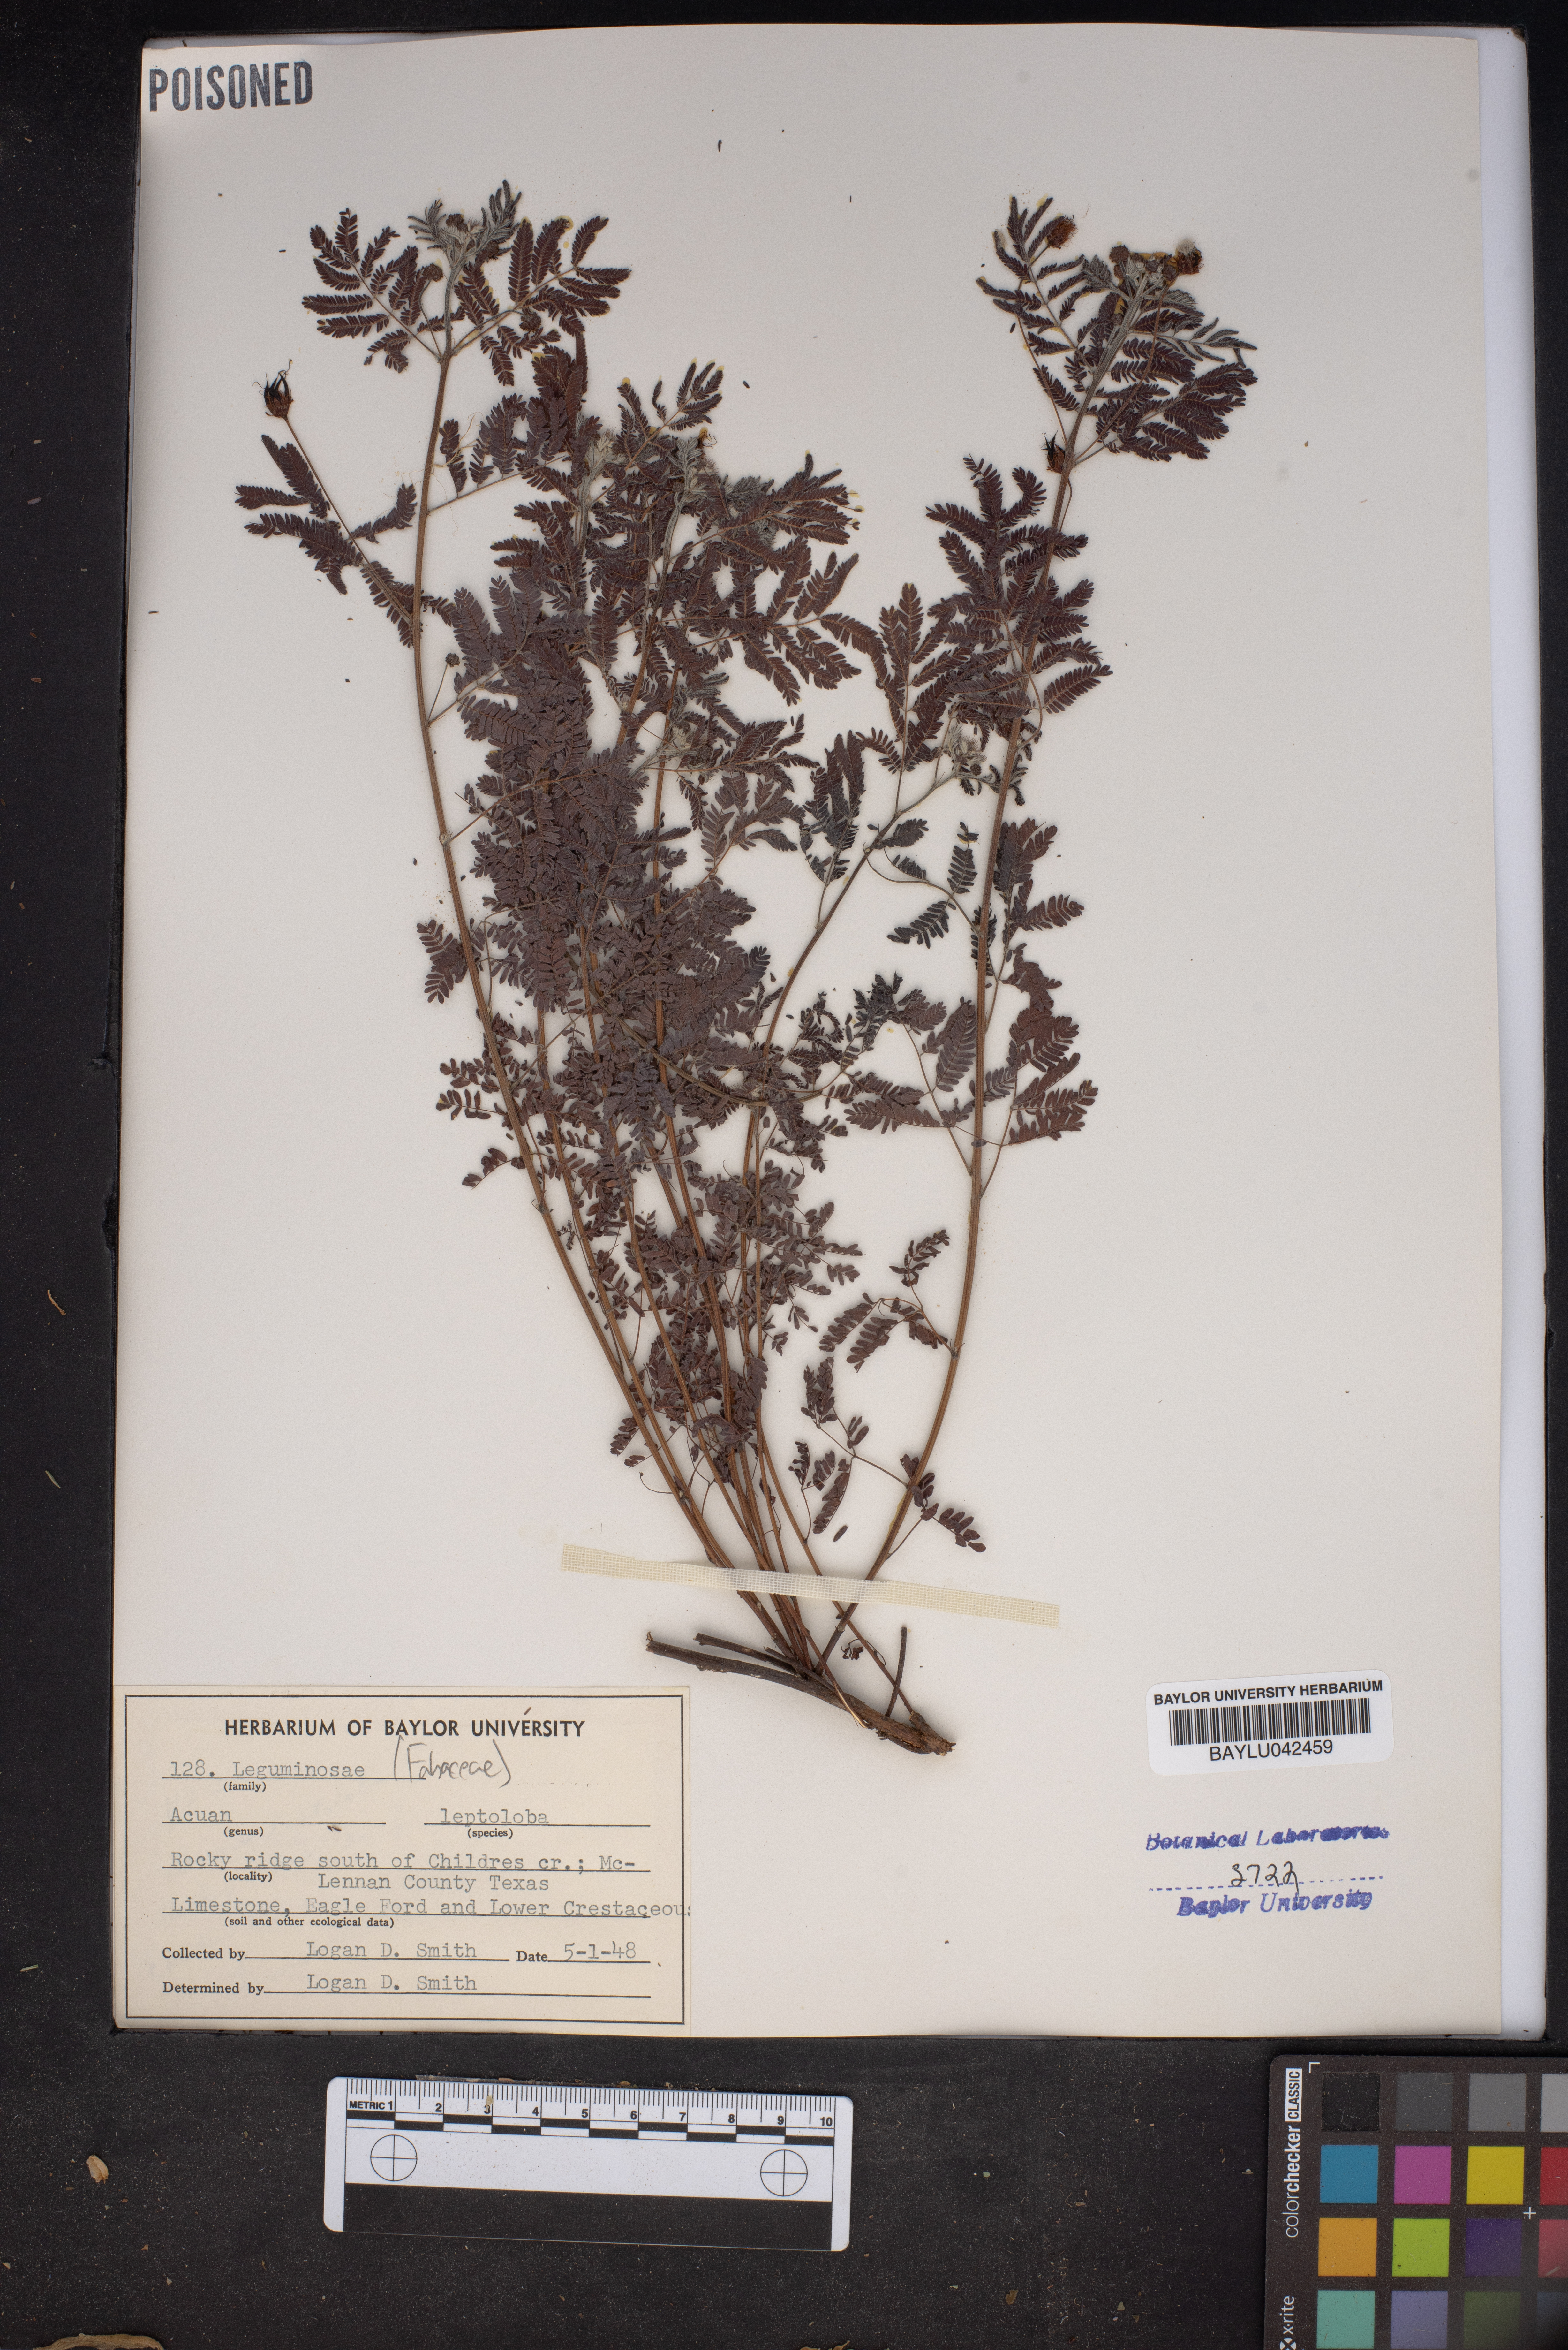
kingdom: Plantae
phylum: Tracheophyta
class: Magnoliopsida
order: Fabales
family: Fabaceae
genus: Desmanthus
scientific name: Desmanthus leptolobus
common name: Prairie-mimosa
